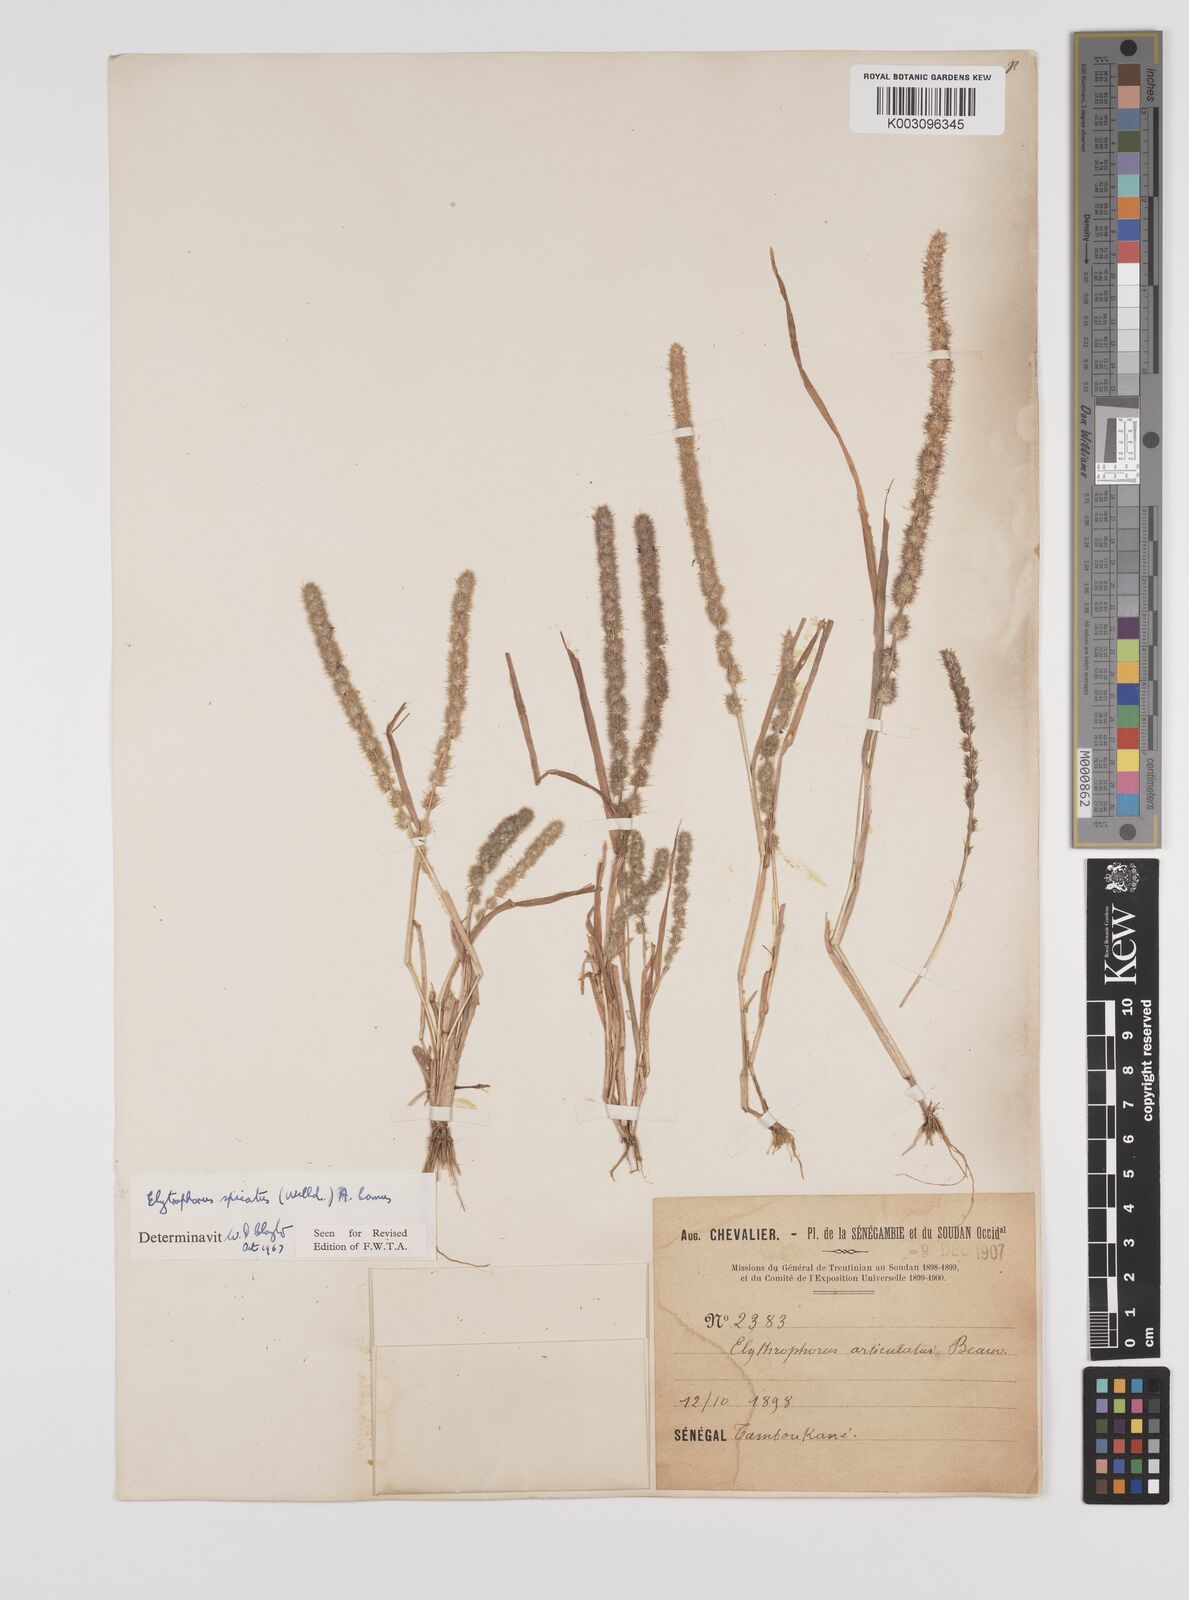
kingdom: Plantae
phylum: Tracheophyta
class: Liliopsida
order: Poales
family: Poaceae
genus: Elytrophorus
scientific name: Elytrophorus spicatus
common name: Spike grass
